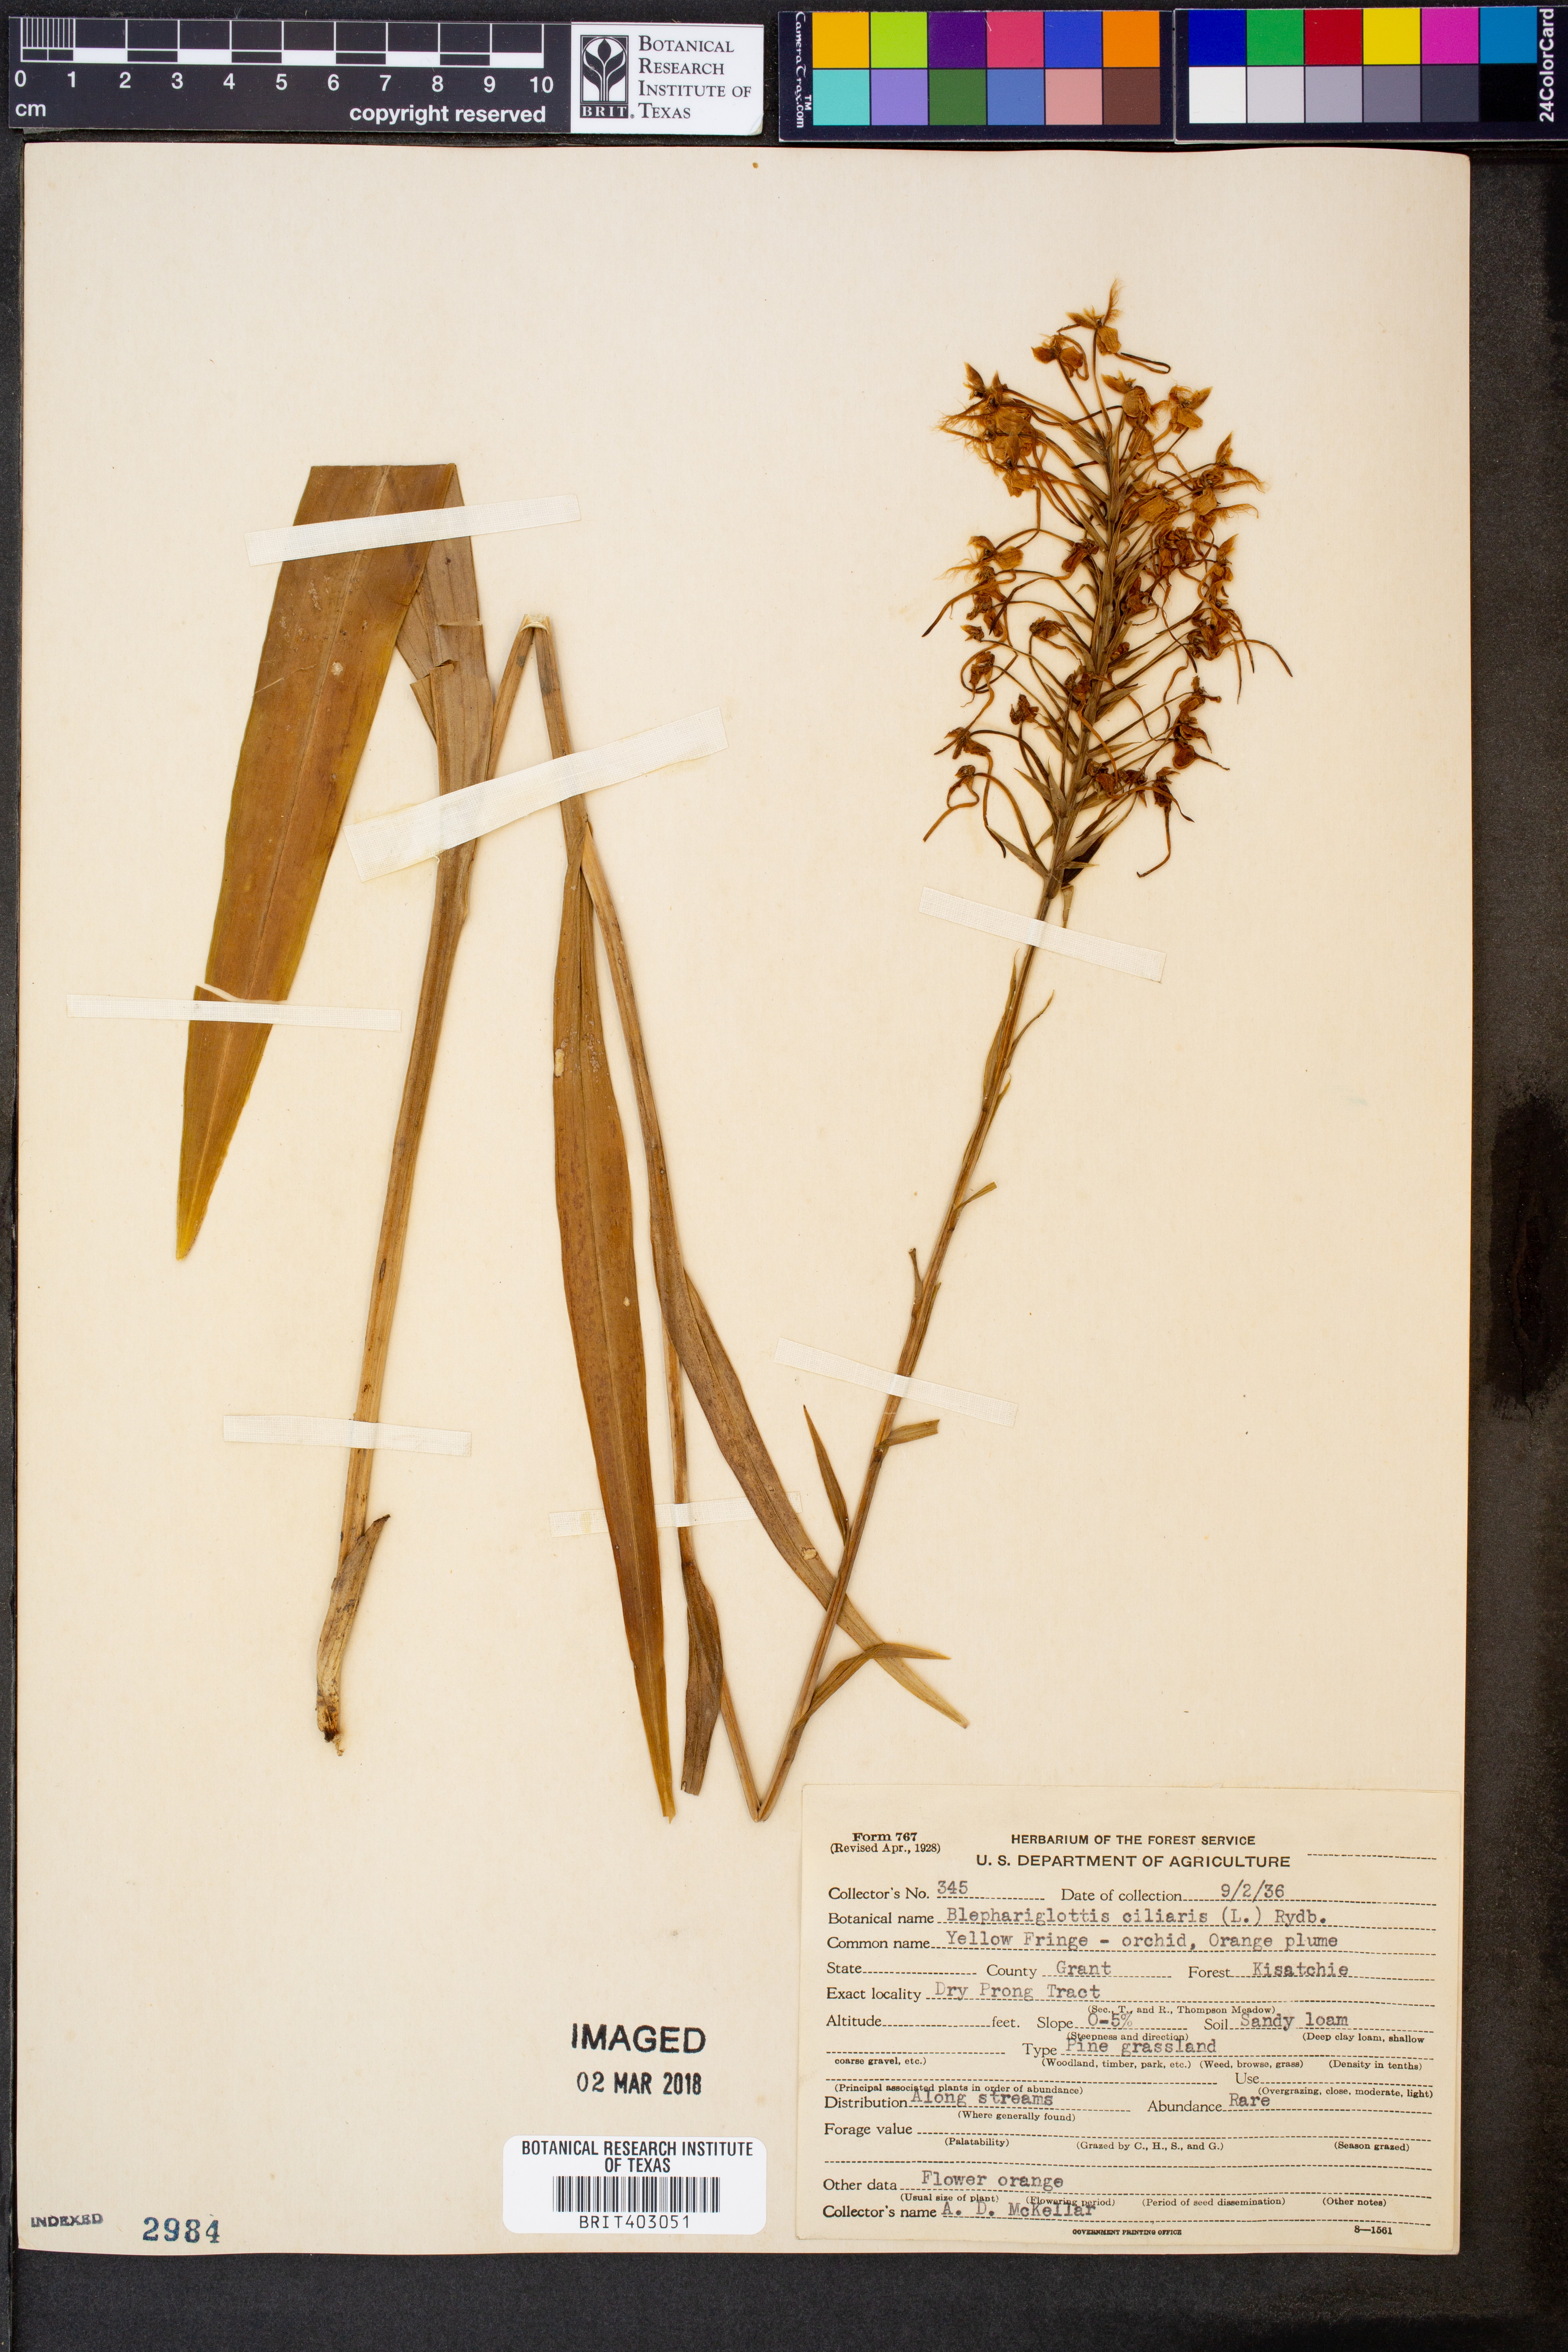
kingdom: Plantae
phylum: Tracheophyta
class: Liliopsida
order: Asparagales
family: Orchidaceae
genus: Platanthera
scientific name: Platanthera ciliaris
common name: Yellow fringed orchid
